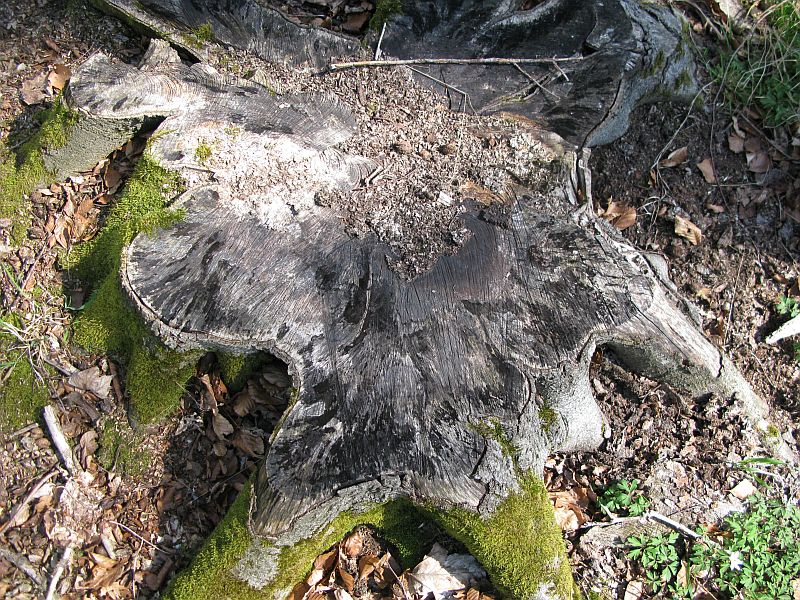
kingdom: Fungi
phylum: Ascomycota
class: Leotiomycetes
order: Helotiales
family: Helotiaceae
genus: Bispora
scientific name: Bispora pallescens
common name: måtte-snitskive
